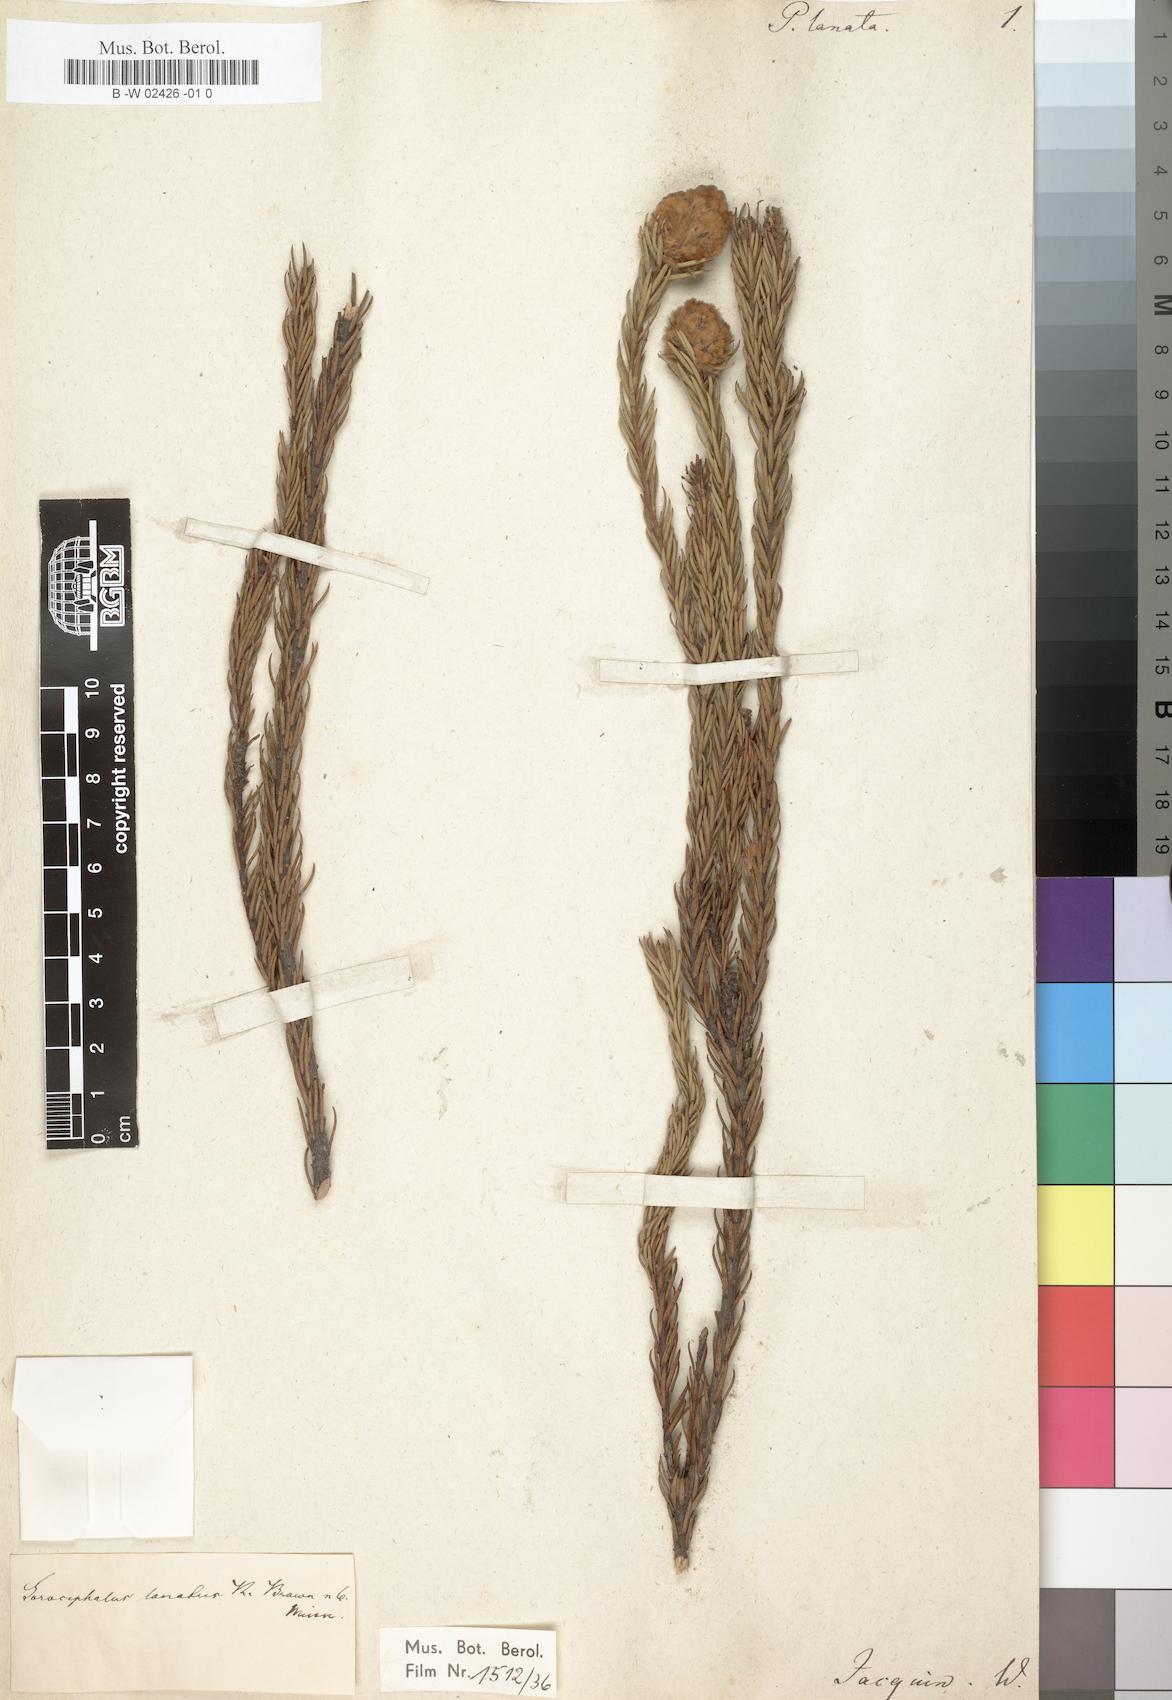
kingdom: Plantae
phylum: Tracheophyta
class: Magnoliopsida
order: Proteales
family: Proteaceae
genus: Sorocephalus
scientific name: Sorocephalus lanatus
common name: Common clusterhead
